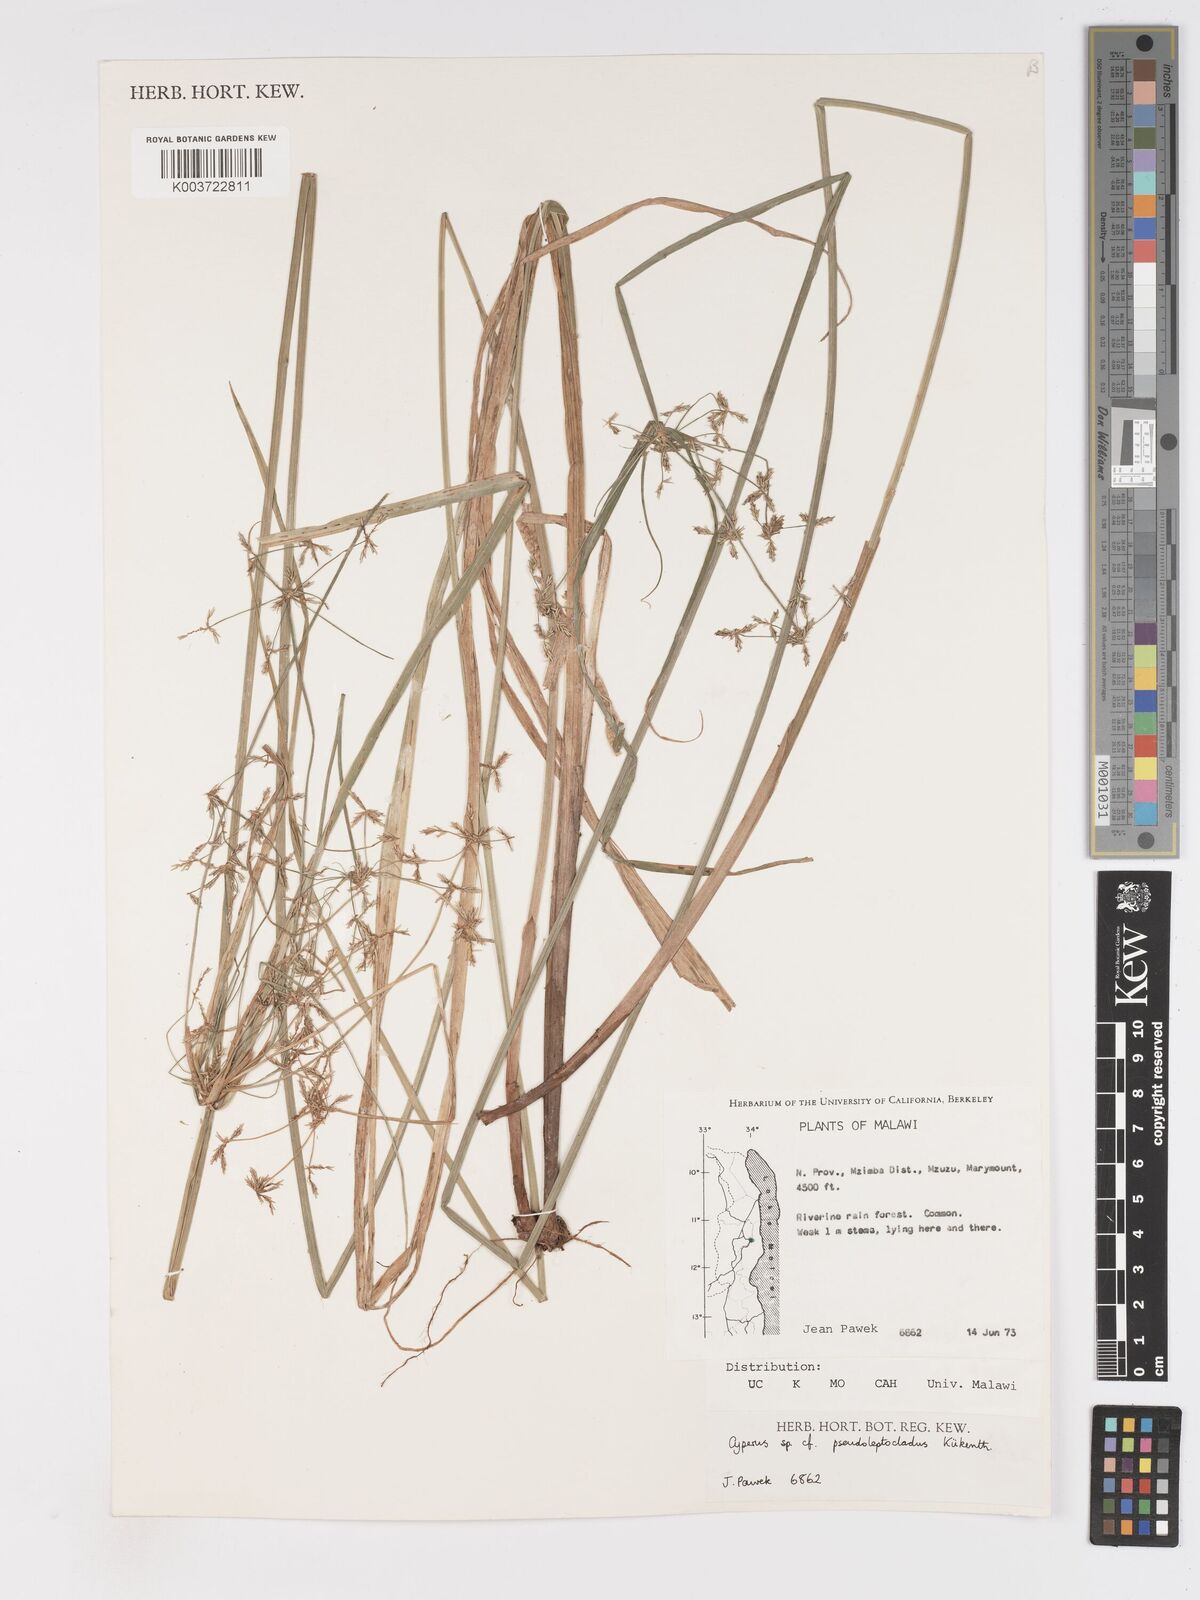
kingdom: Plantae
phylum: Tracheophyta
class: Liliopsida
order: Poales
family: Cyperaceae
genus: Cyperus
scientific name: Cyperus glaucophyllus
